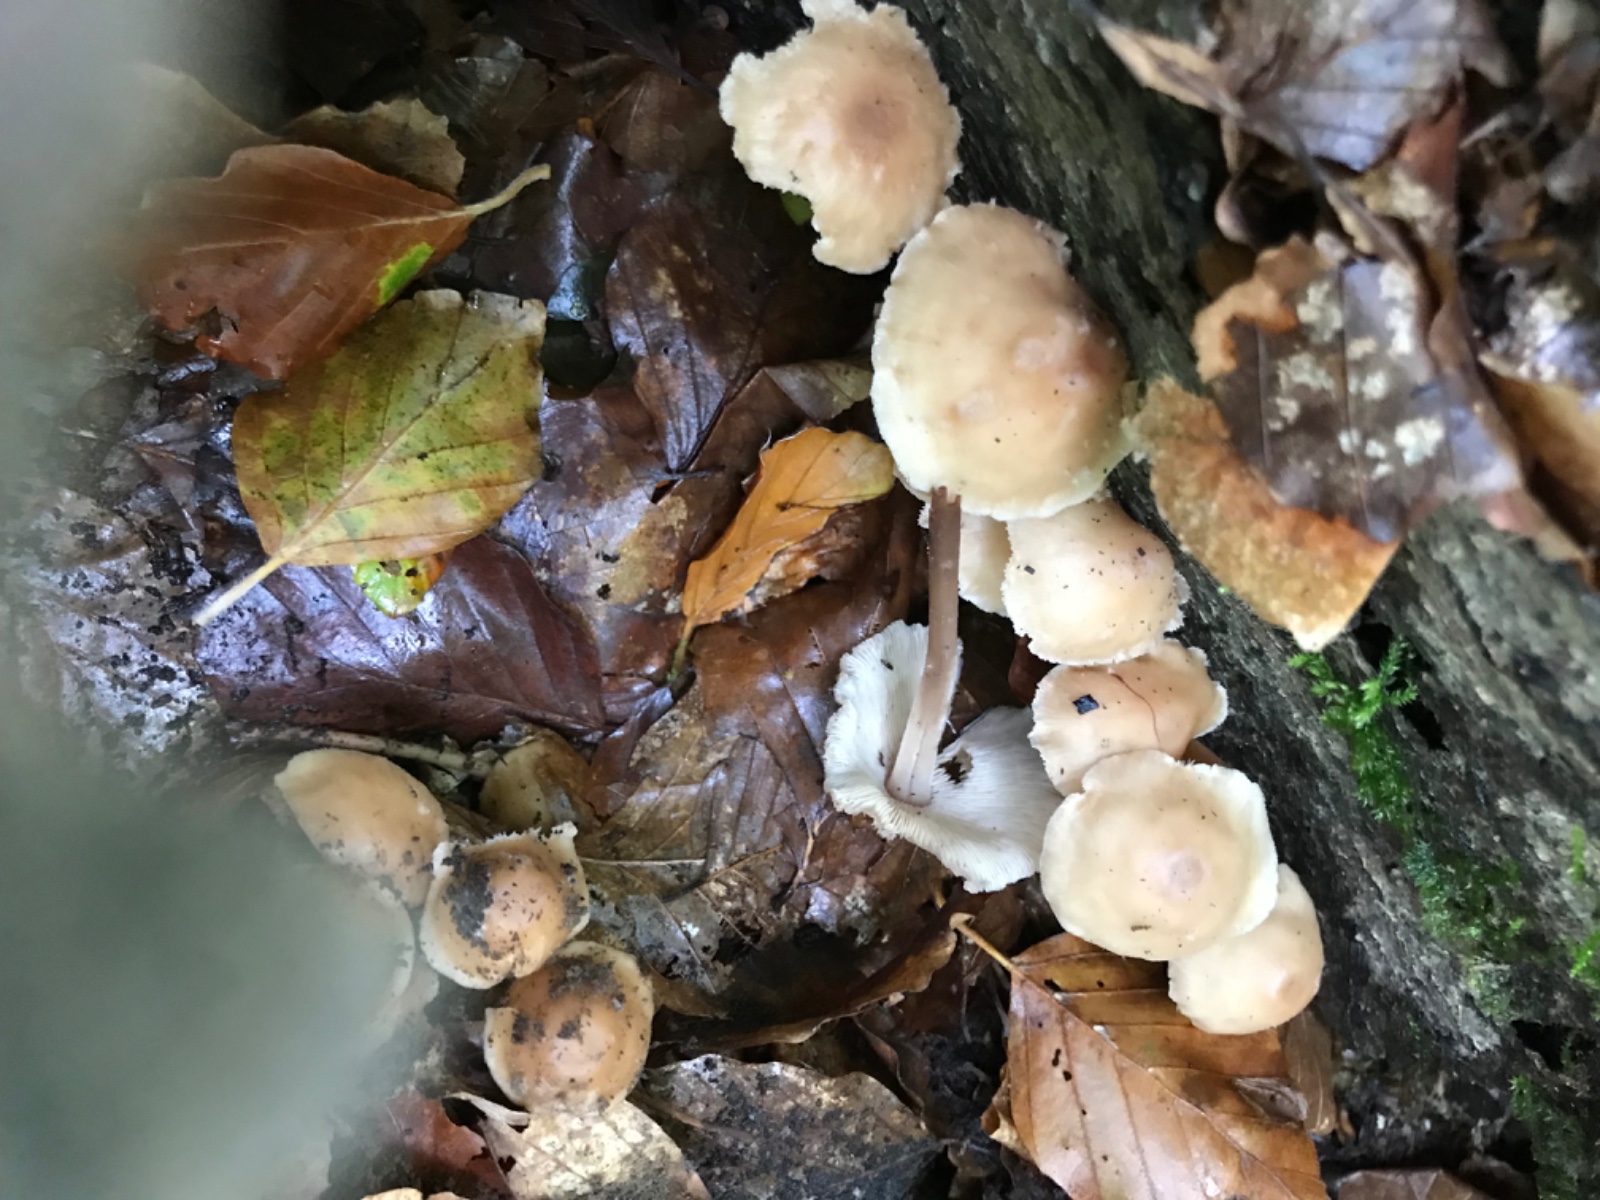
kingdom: Fungi
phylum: Basidiomycota
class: Agaricomycetes
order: Agaricales
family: Omphalotaceae
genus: Collybiopsis
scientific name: Collybiopsis confluens
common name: knippe-fladhat
